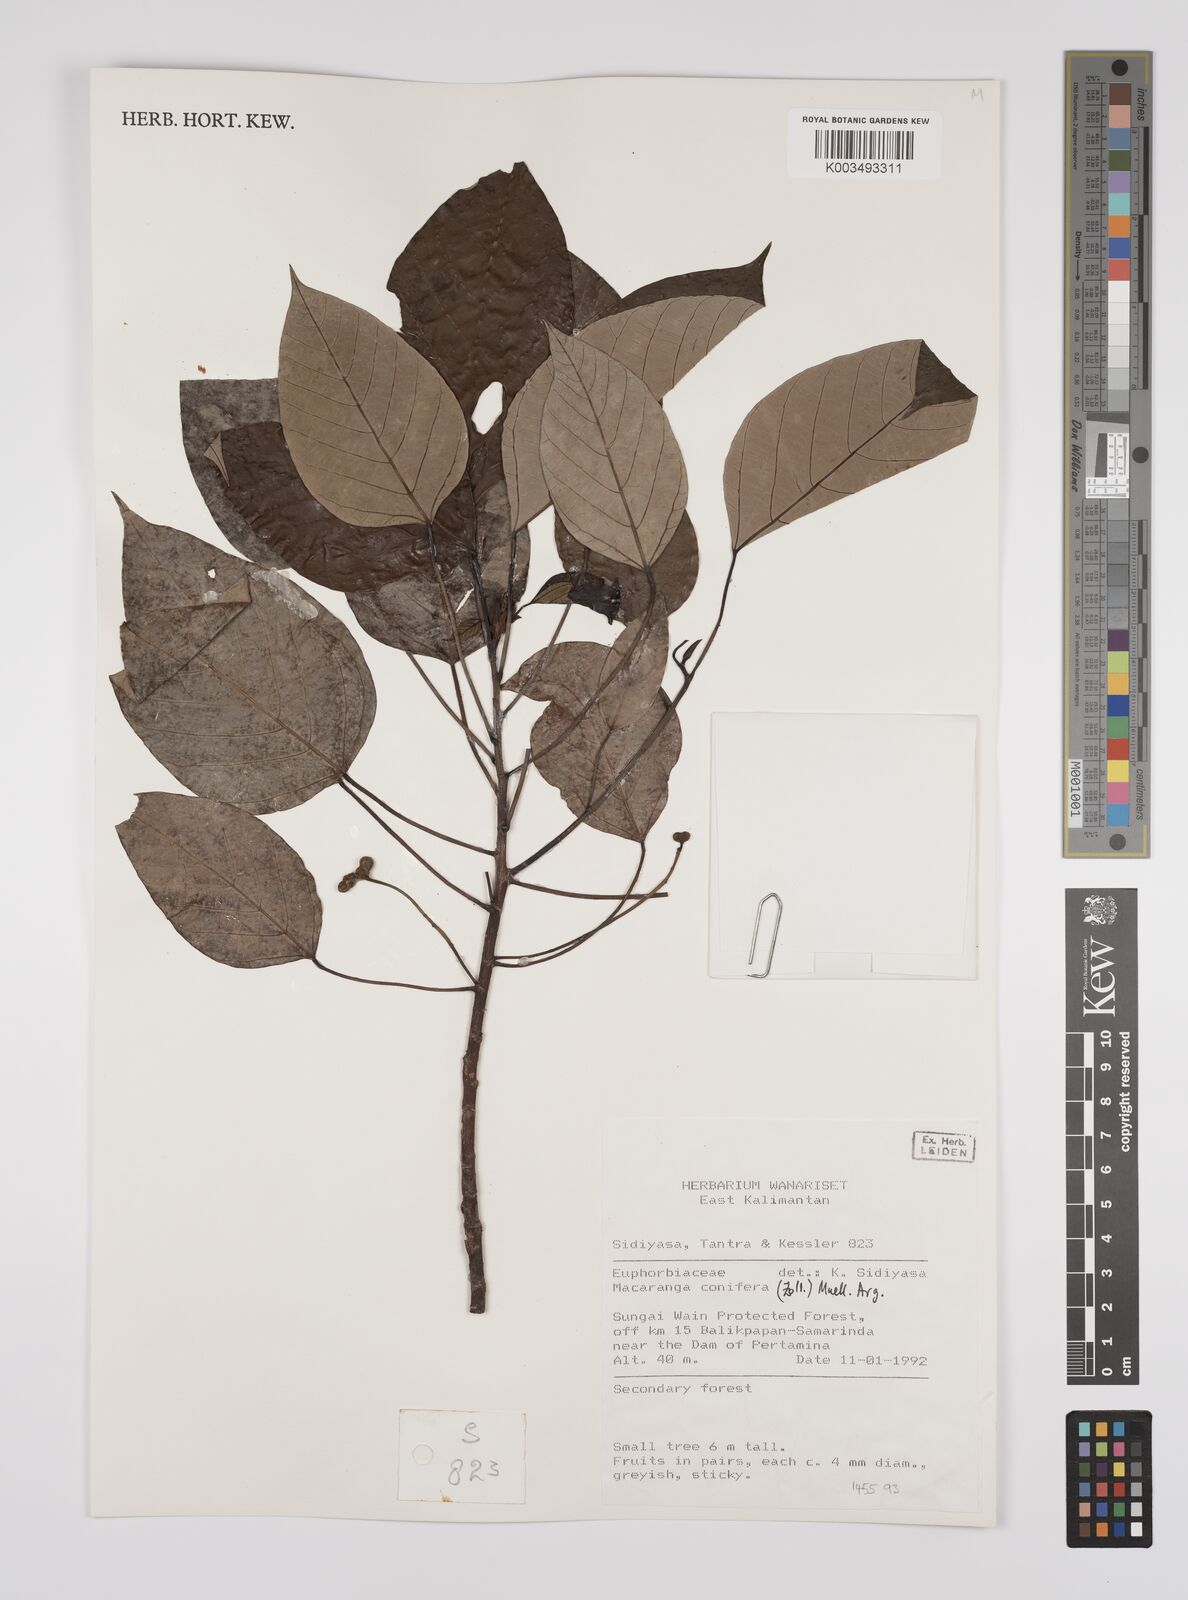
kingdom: Plantae
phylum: Tracheophyta
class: Magnoliopsida
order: Malpighiales
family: Euphorbiaceae
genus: Macaranga
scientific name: Macaranga conifera
